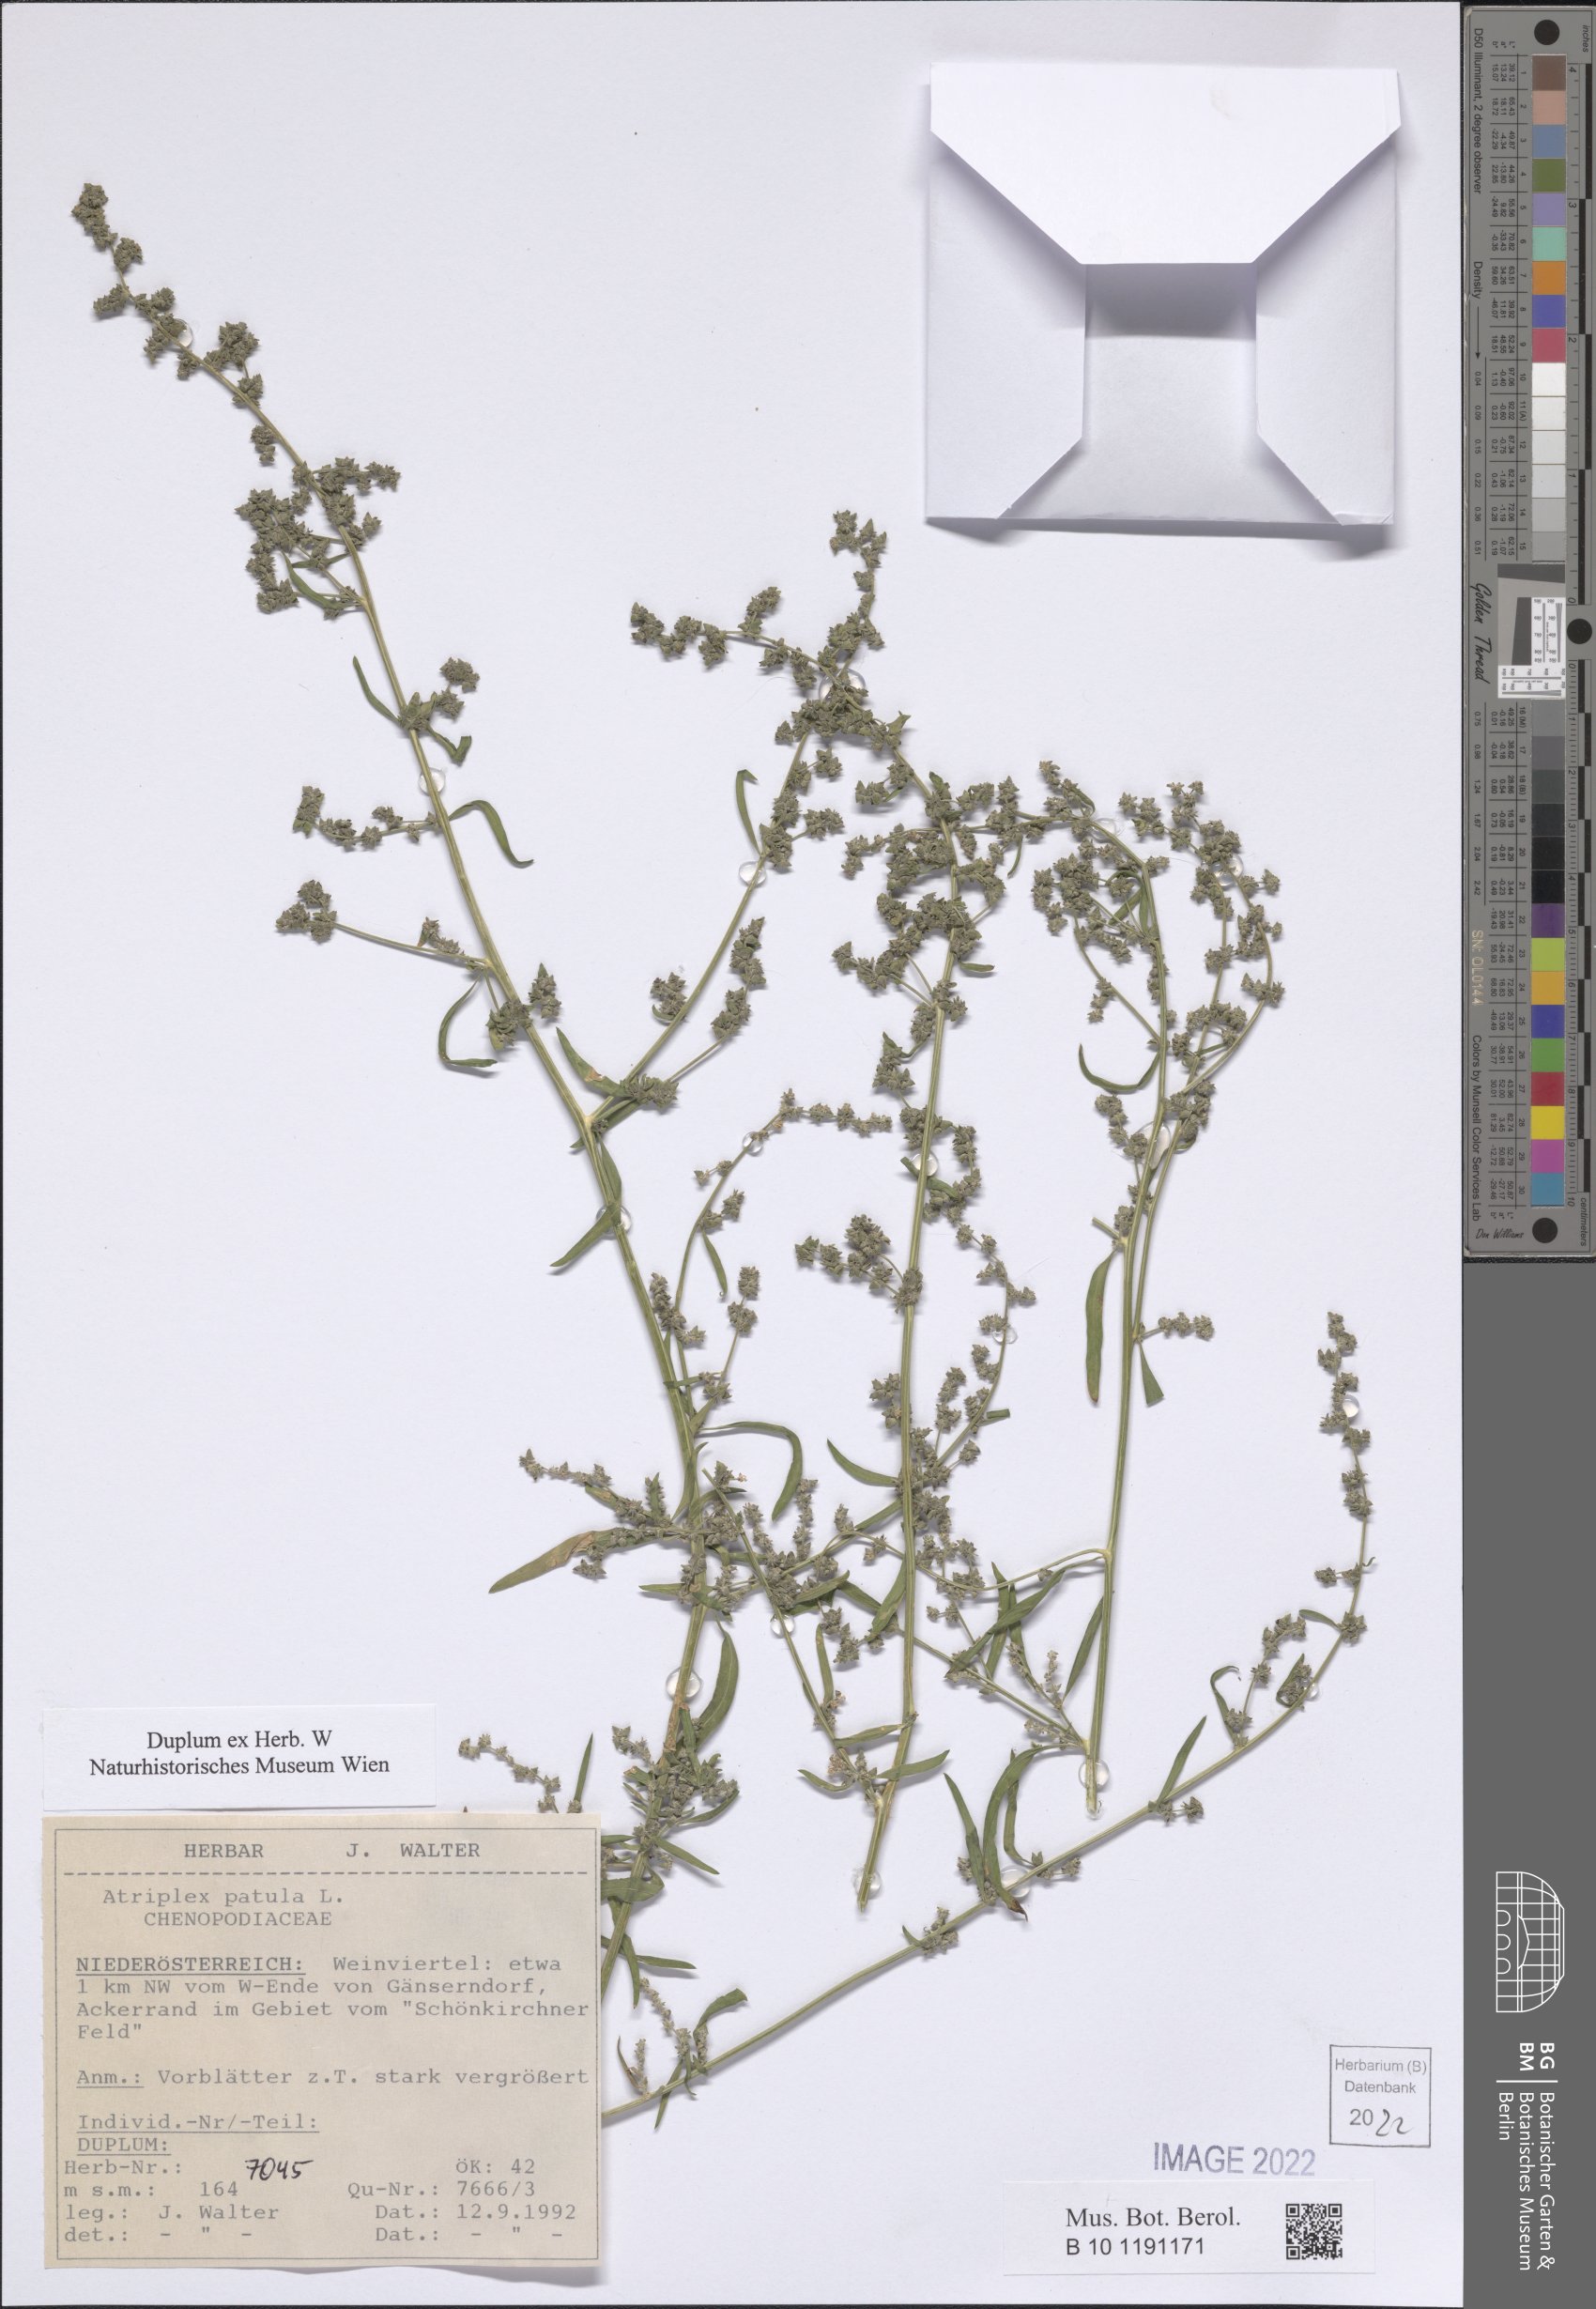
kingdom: Plantae
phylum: Tracheophyta
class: Magnoliopsida
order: Caryophyllales
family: Amaranthaceae
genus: Atriplex
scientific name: Atriplex patula
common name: Common orache
